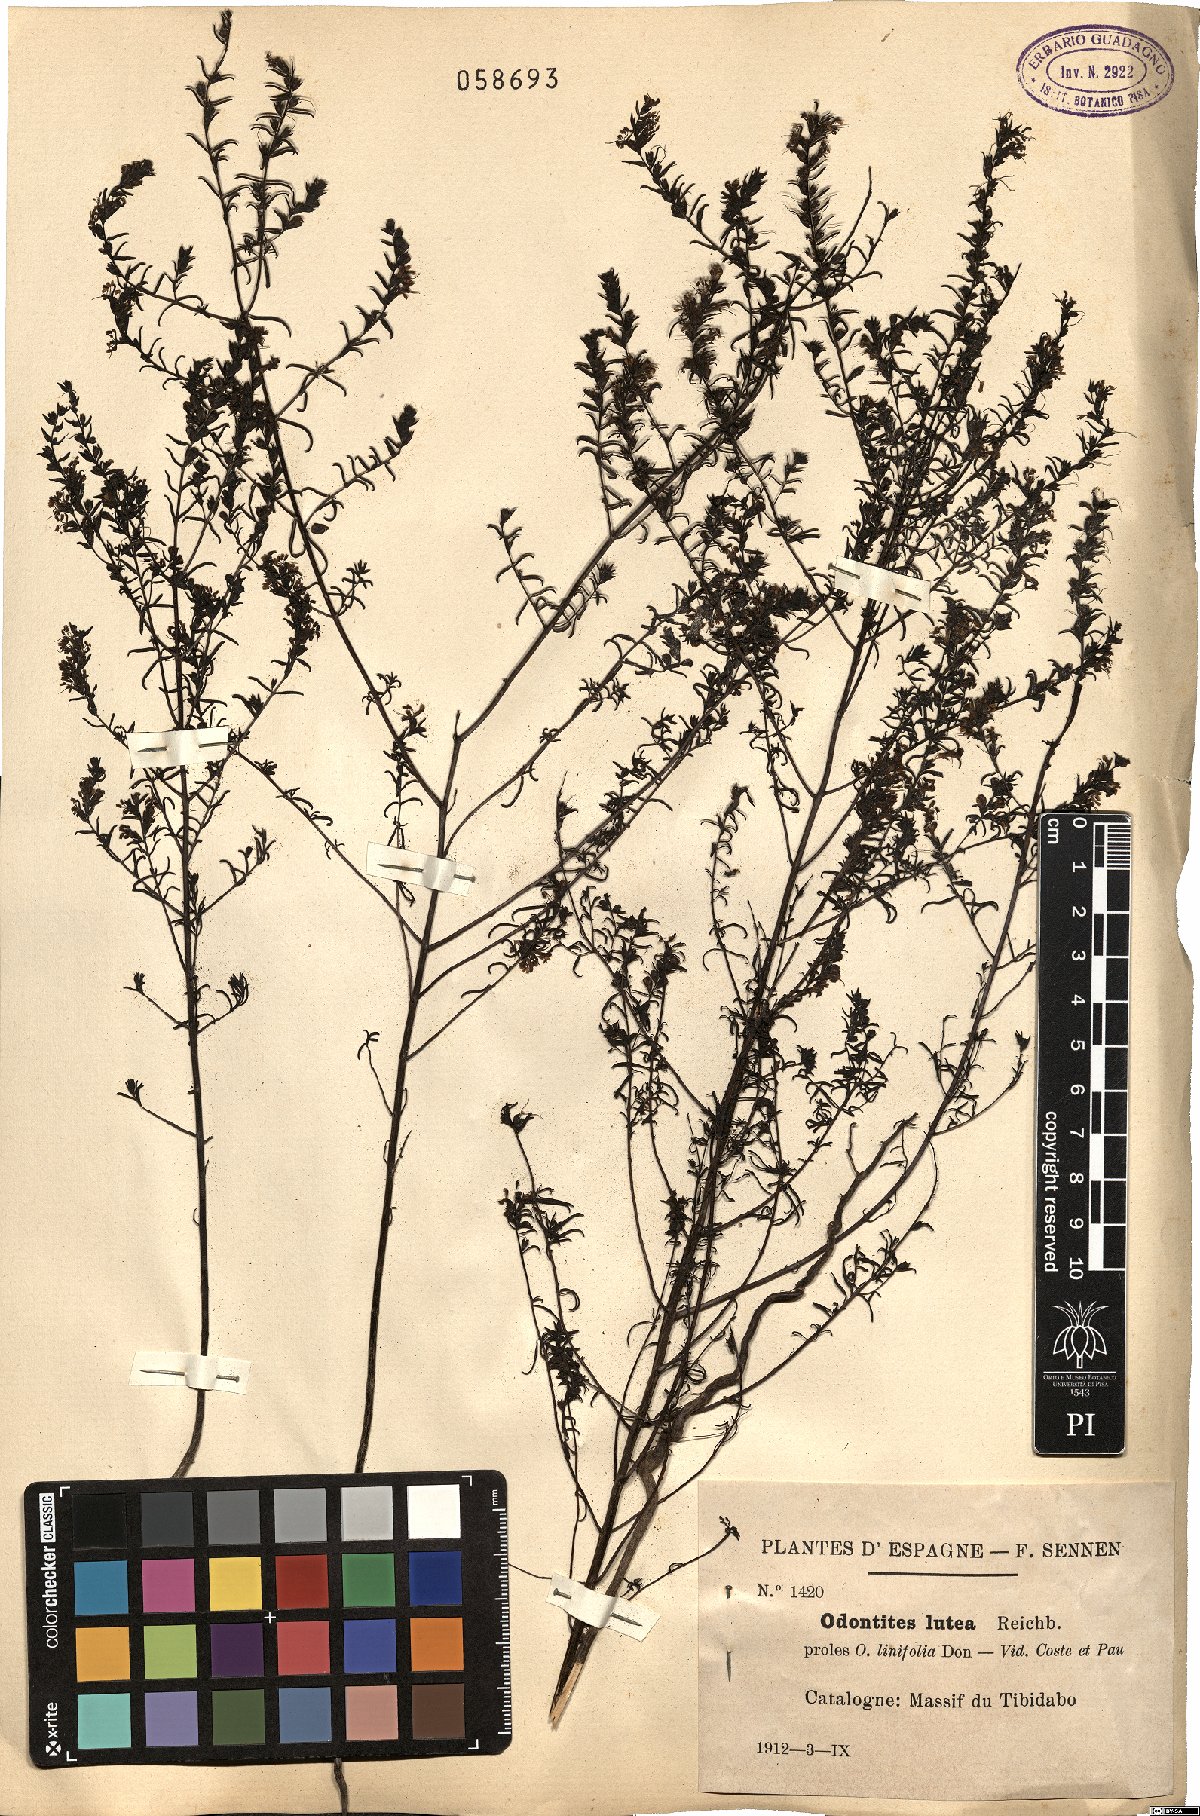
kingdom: Plantae
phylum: Tracheophyta
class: Magnoliopsida
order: Lamiales
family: Orobanchaceae
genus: Odontites
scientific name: Odontites luteus
